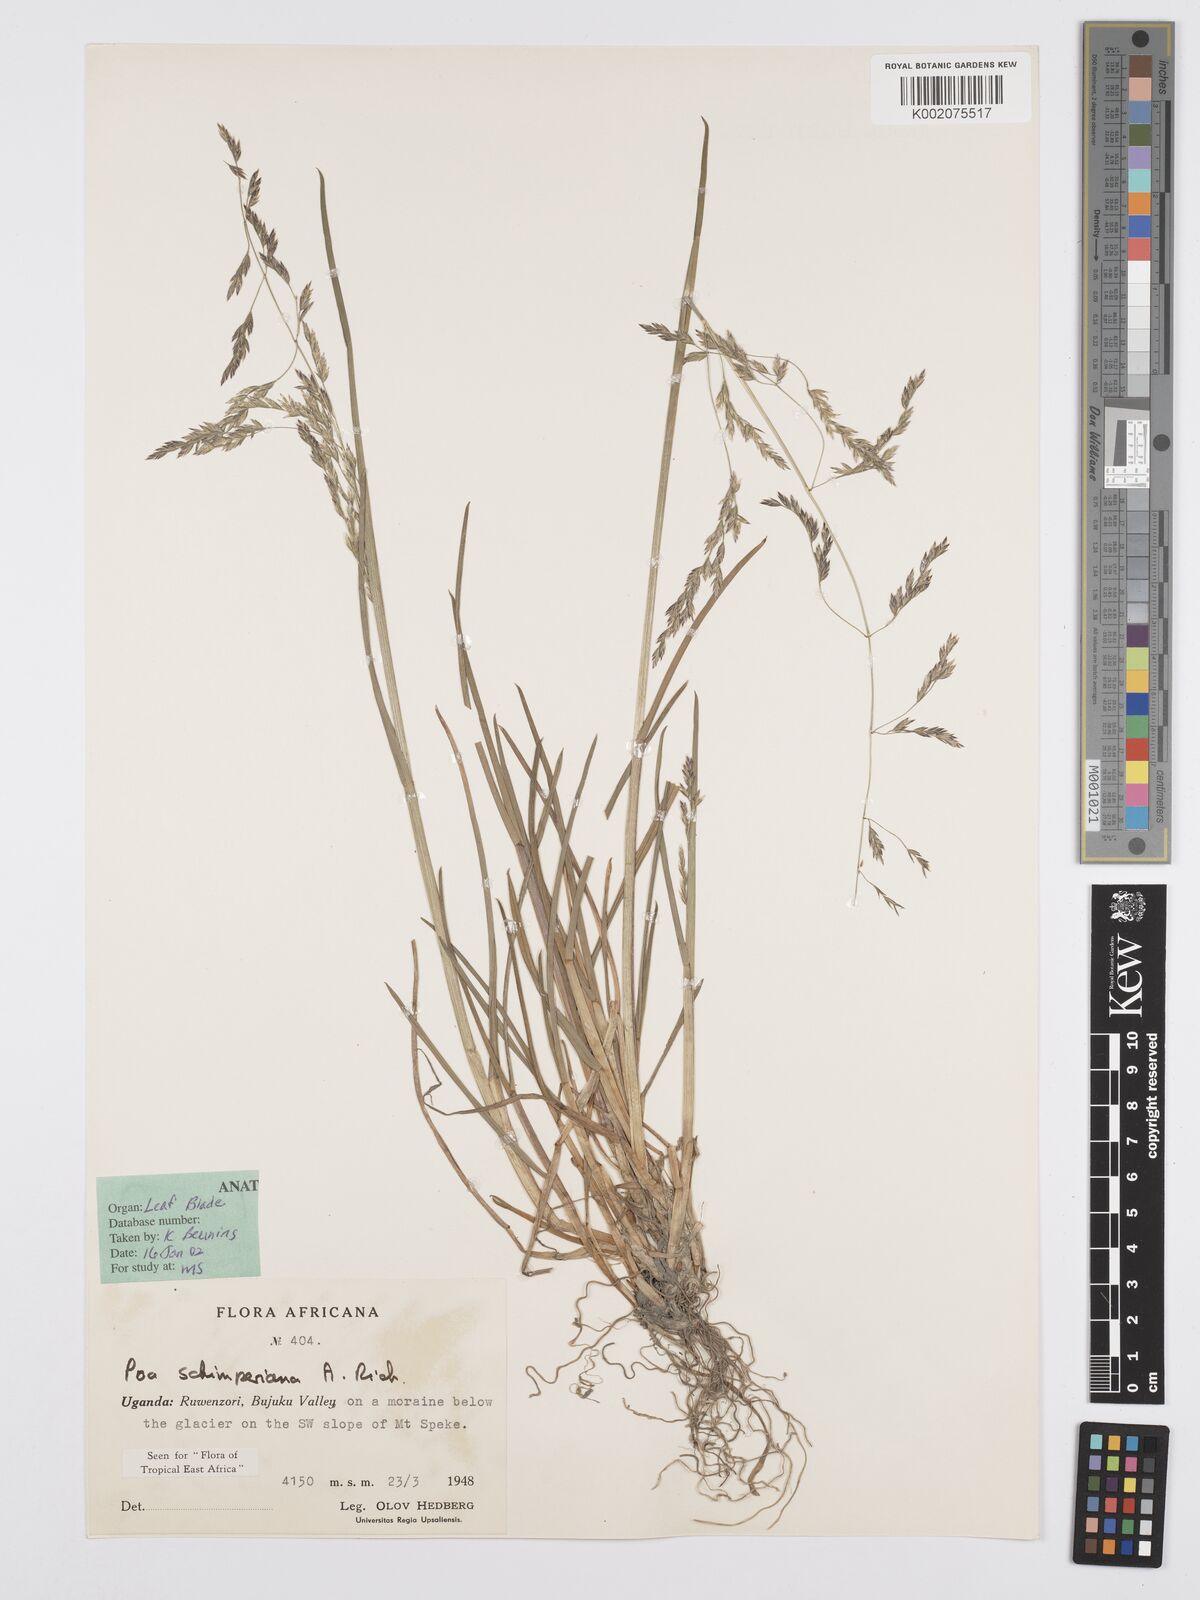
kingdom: Plantae
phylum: Tracheophyta
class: Liliopsida
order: Poales
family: Poaceae
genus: Poa
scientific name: Poa schimperiana
